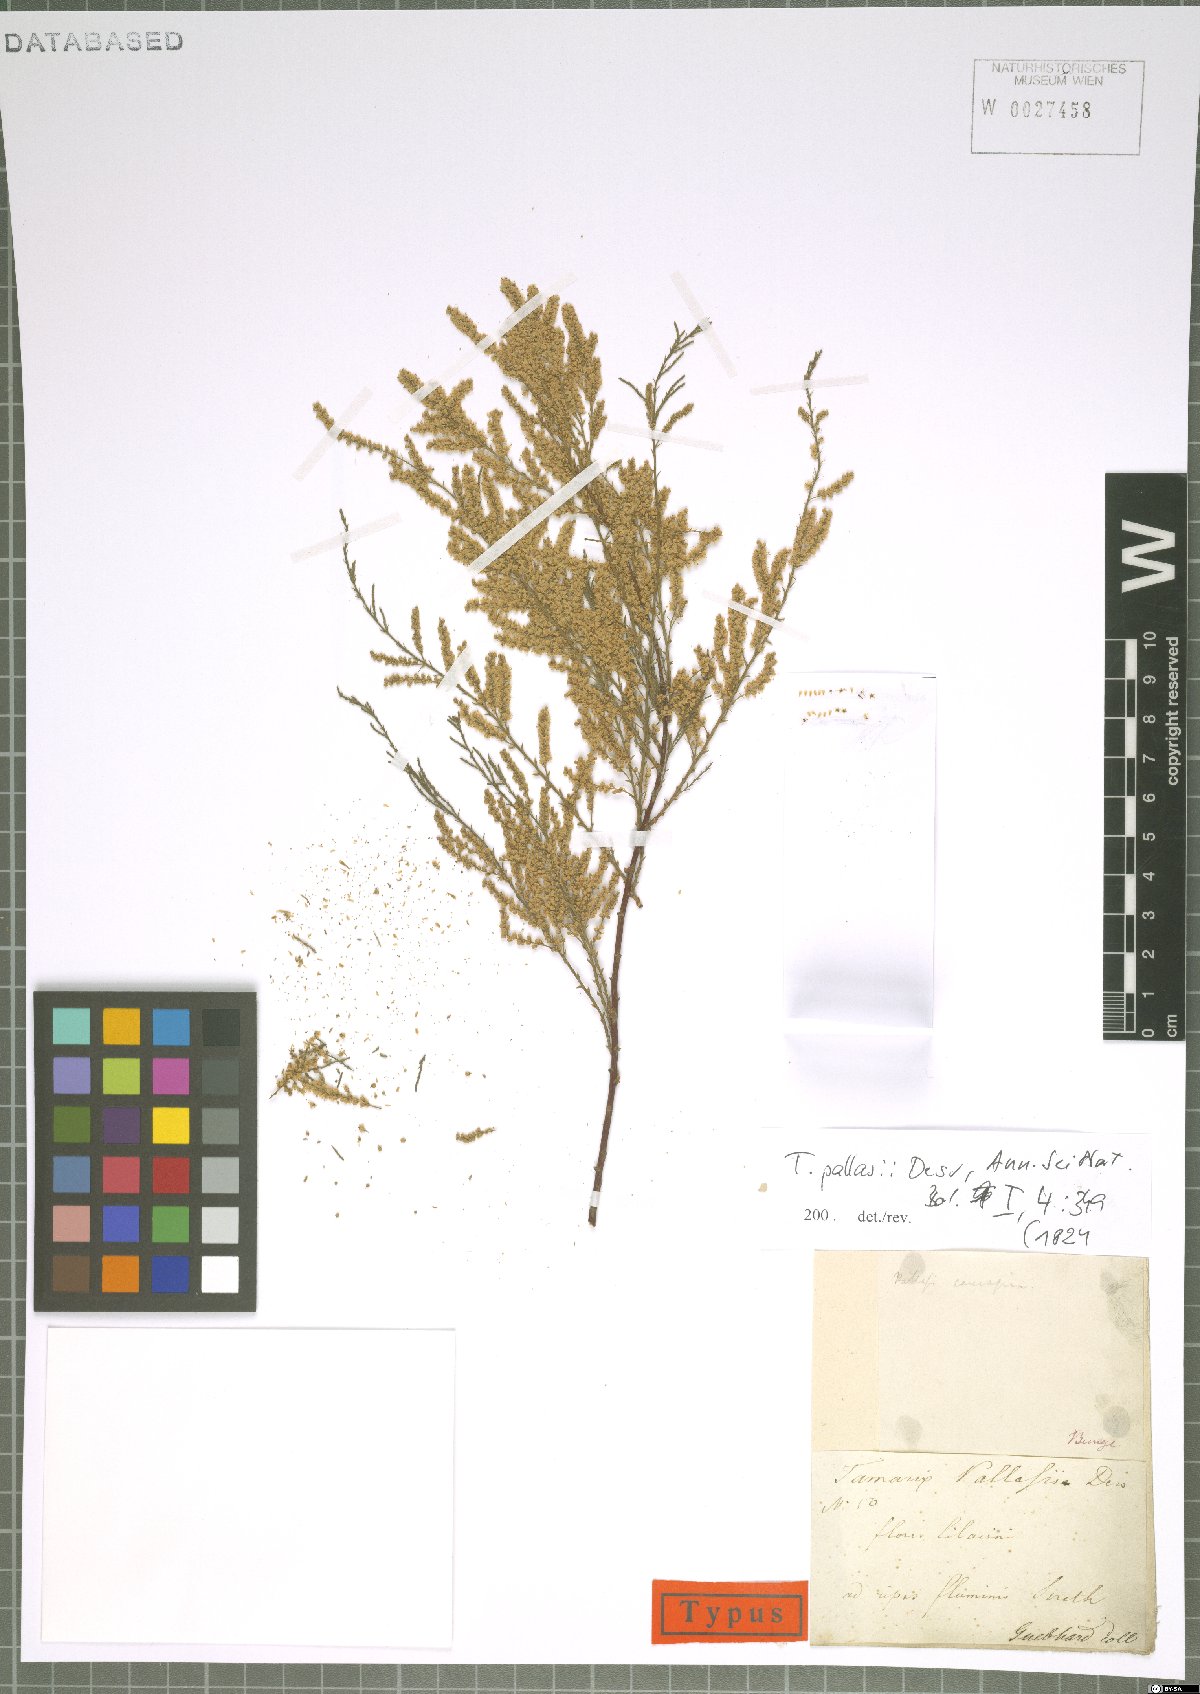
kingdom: Plantae
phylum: Tracheophyta
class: Magnoliopsida
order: Caryophyllales
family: Tamaricaceae
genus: Tamarix
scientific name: Tamarix smyrnensis
